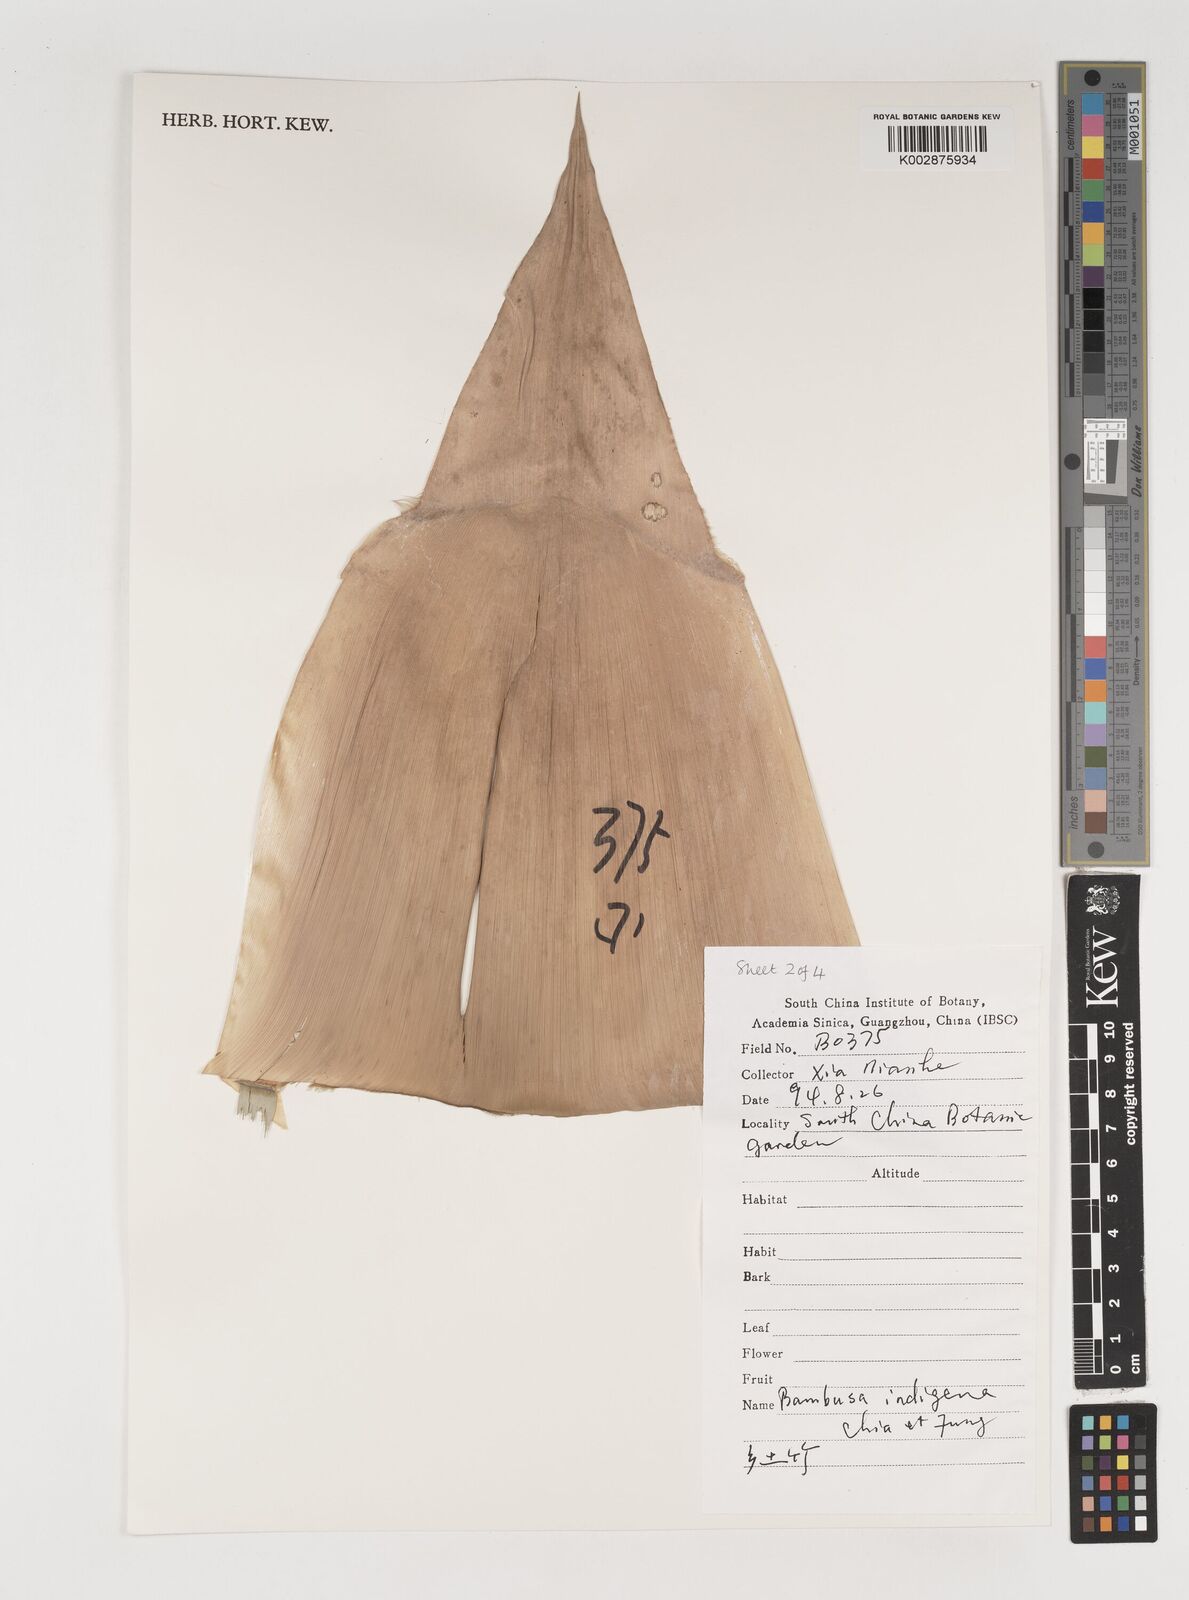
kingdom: Plantae
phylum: Tracheophyta
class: Liliopsida
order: Poales
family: Poaceae
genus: Bambusa
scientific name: Bambusa indigena
